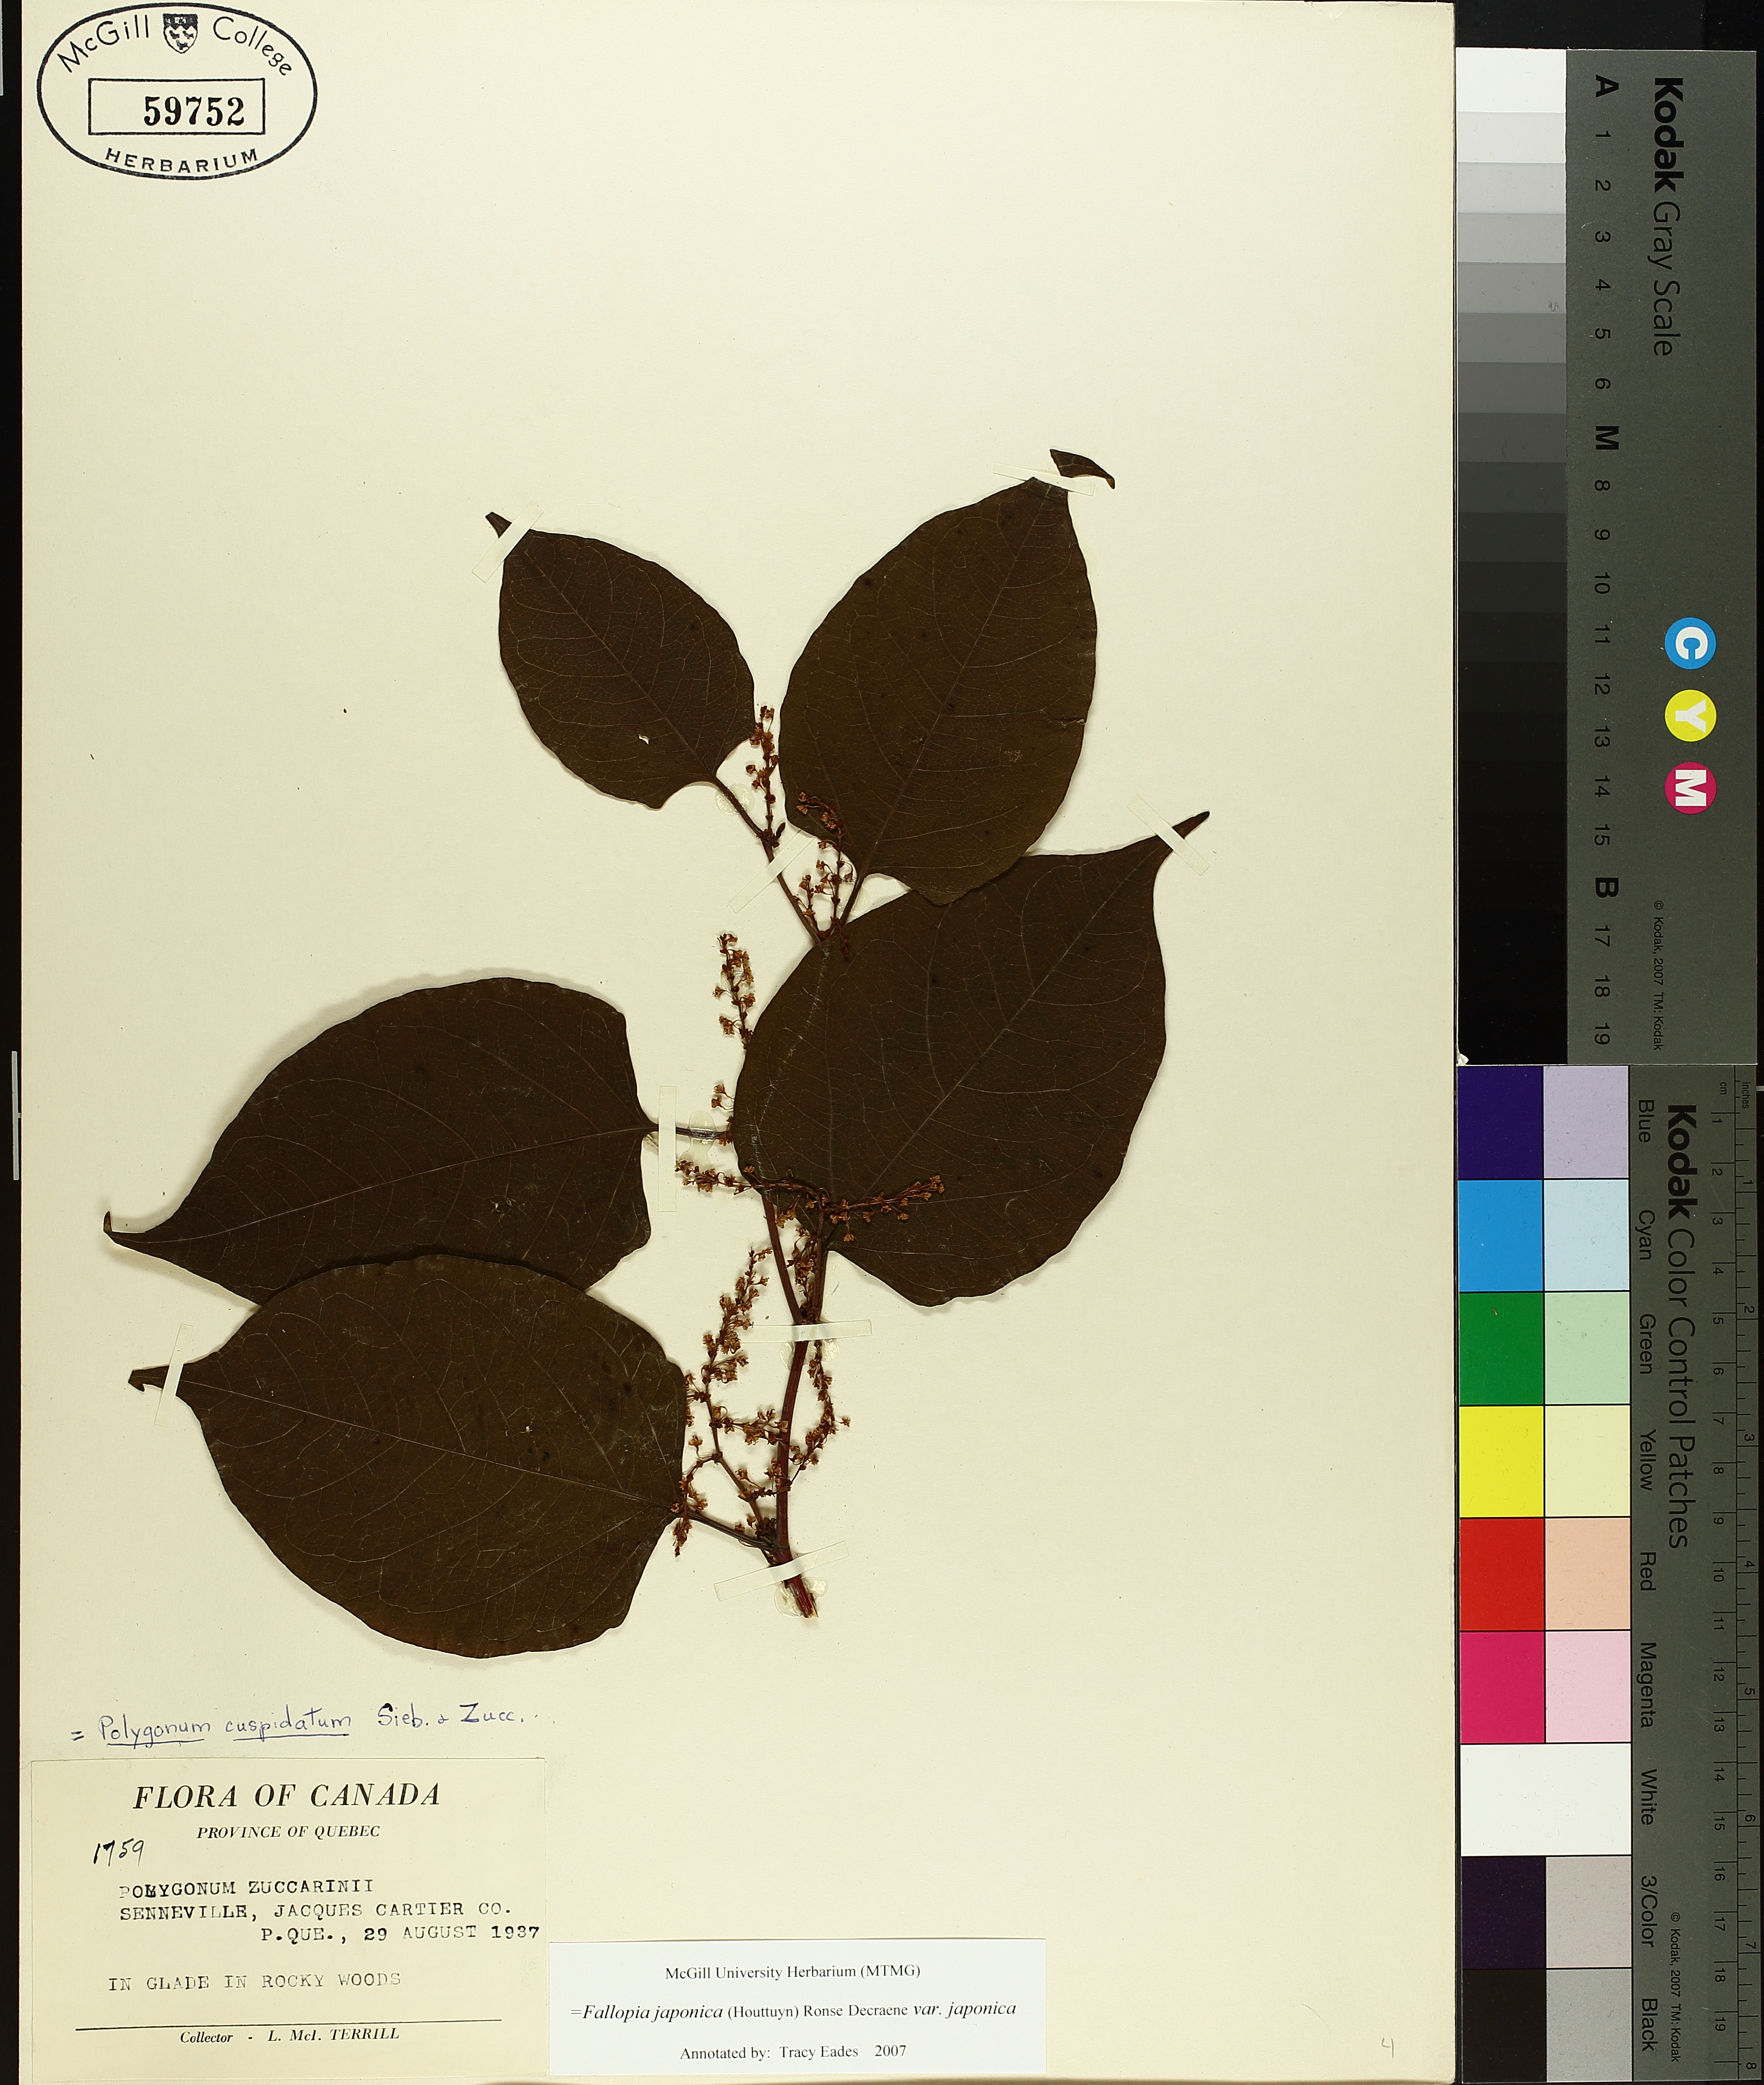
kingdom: Plantae
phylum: Tracheophyta
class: Magnoliopsida
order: Caryophyllales
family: Polygonaceae
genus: Reynoutria
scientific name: Reynoutria japonica
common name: Japanese knotweed
